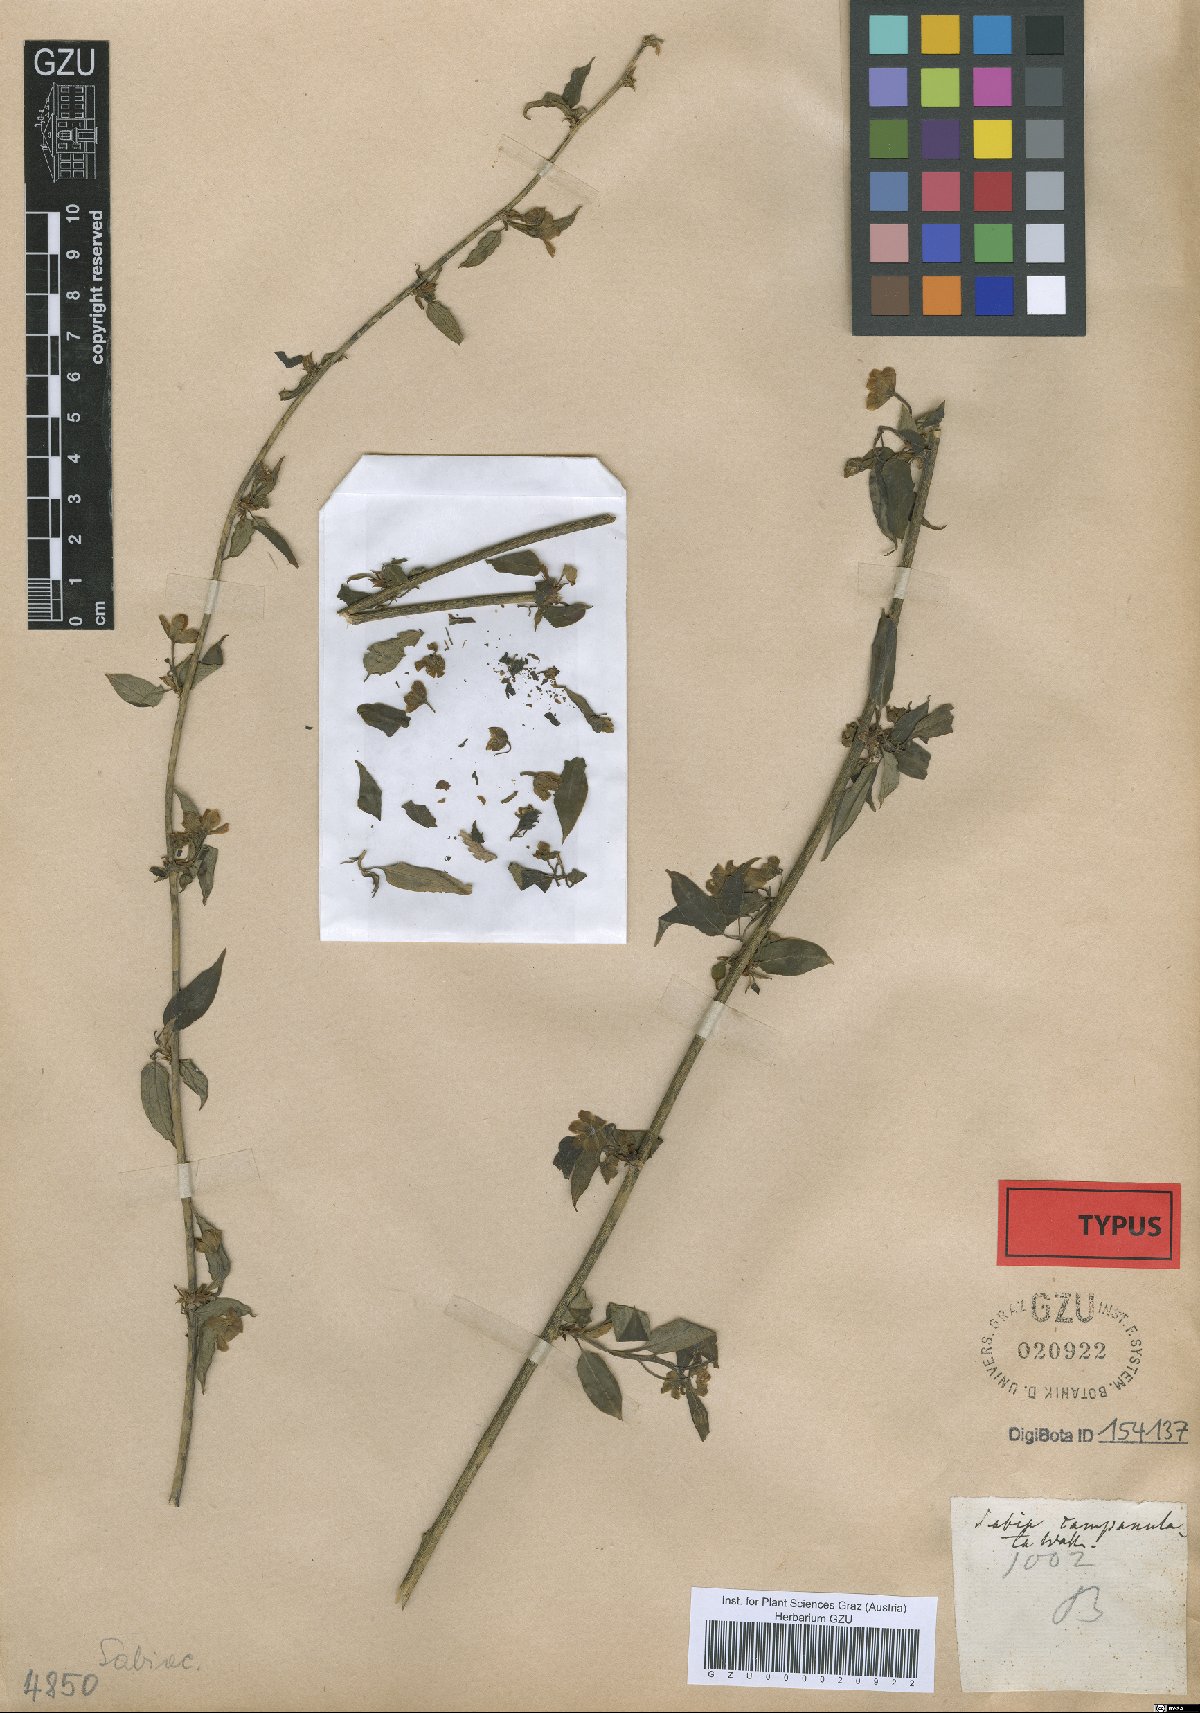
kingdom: Plantae
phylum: Tracheophyta
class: Magnoliopsida
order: Proteales
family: Sabiaceae
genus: Sabia
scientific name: Sabia campanulata
